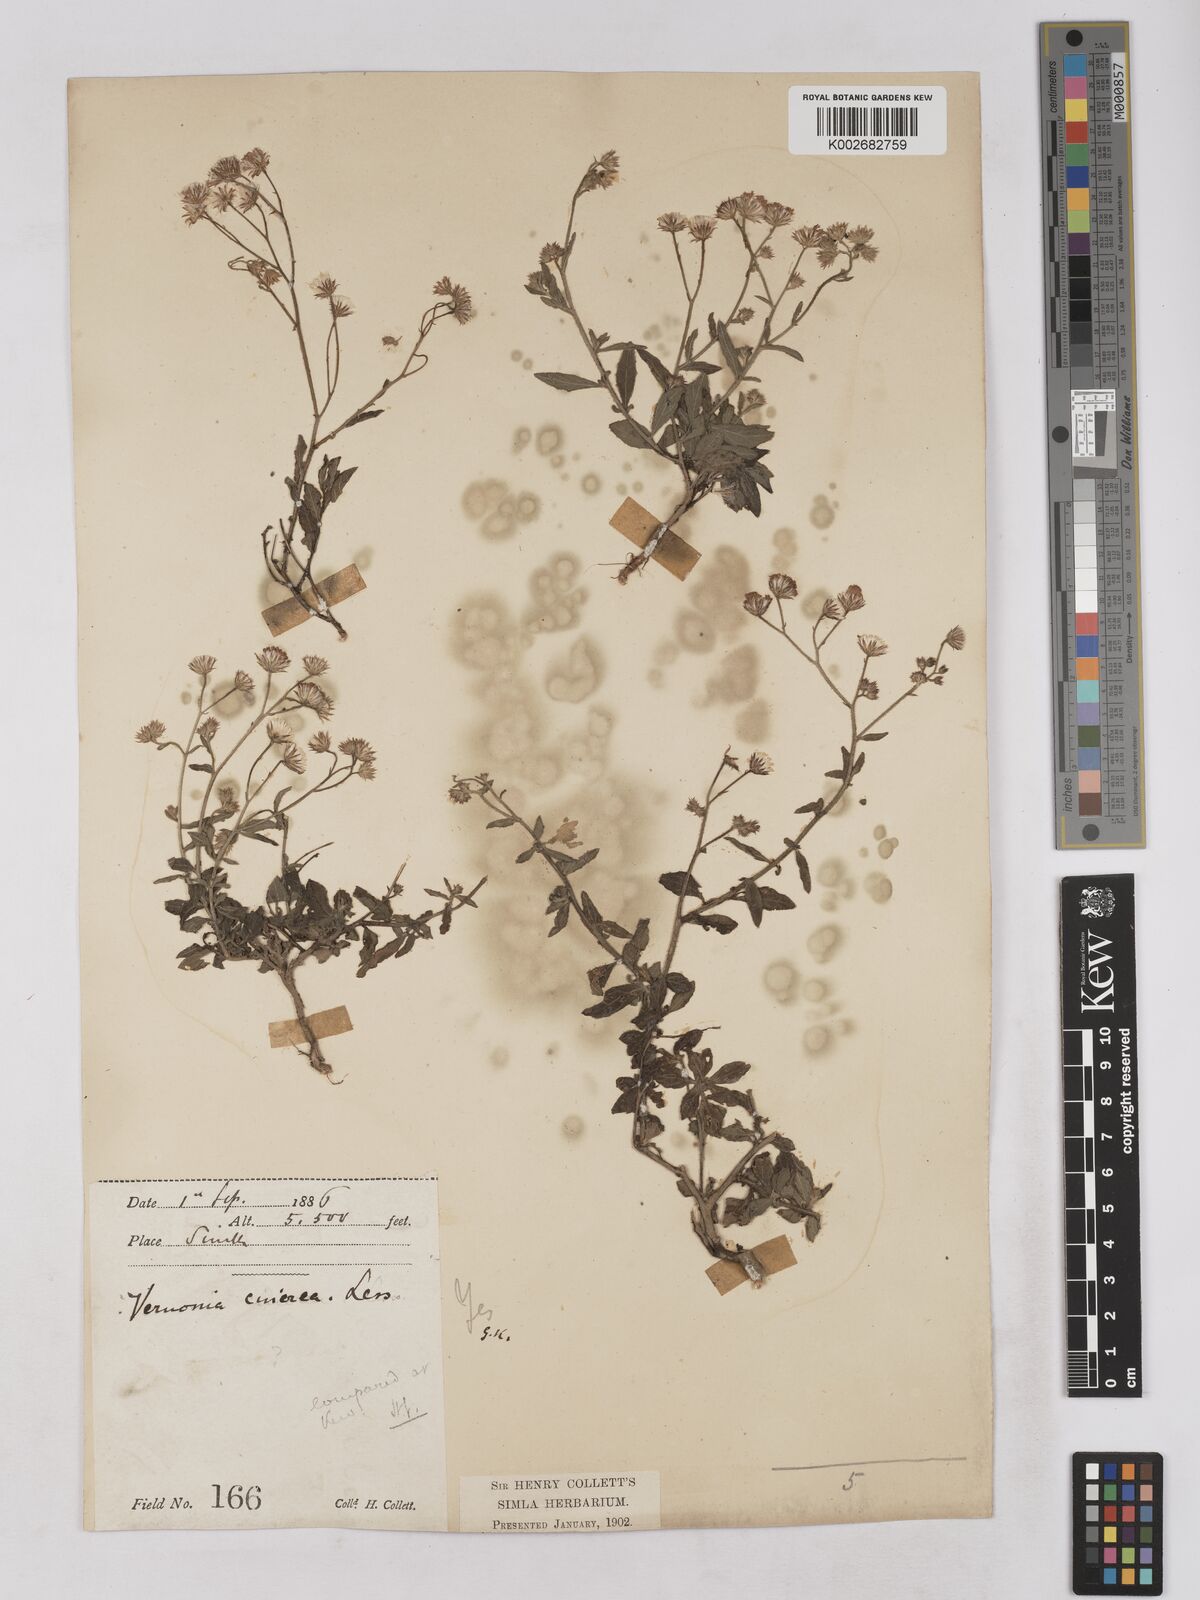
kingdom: Plantae
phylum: Tracheophyta
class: Magnoliopsida
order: Asterales
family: Asteraceae
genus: Cyanthillium
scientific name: Cyanthillium cinereum
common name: Little ironweed
